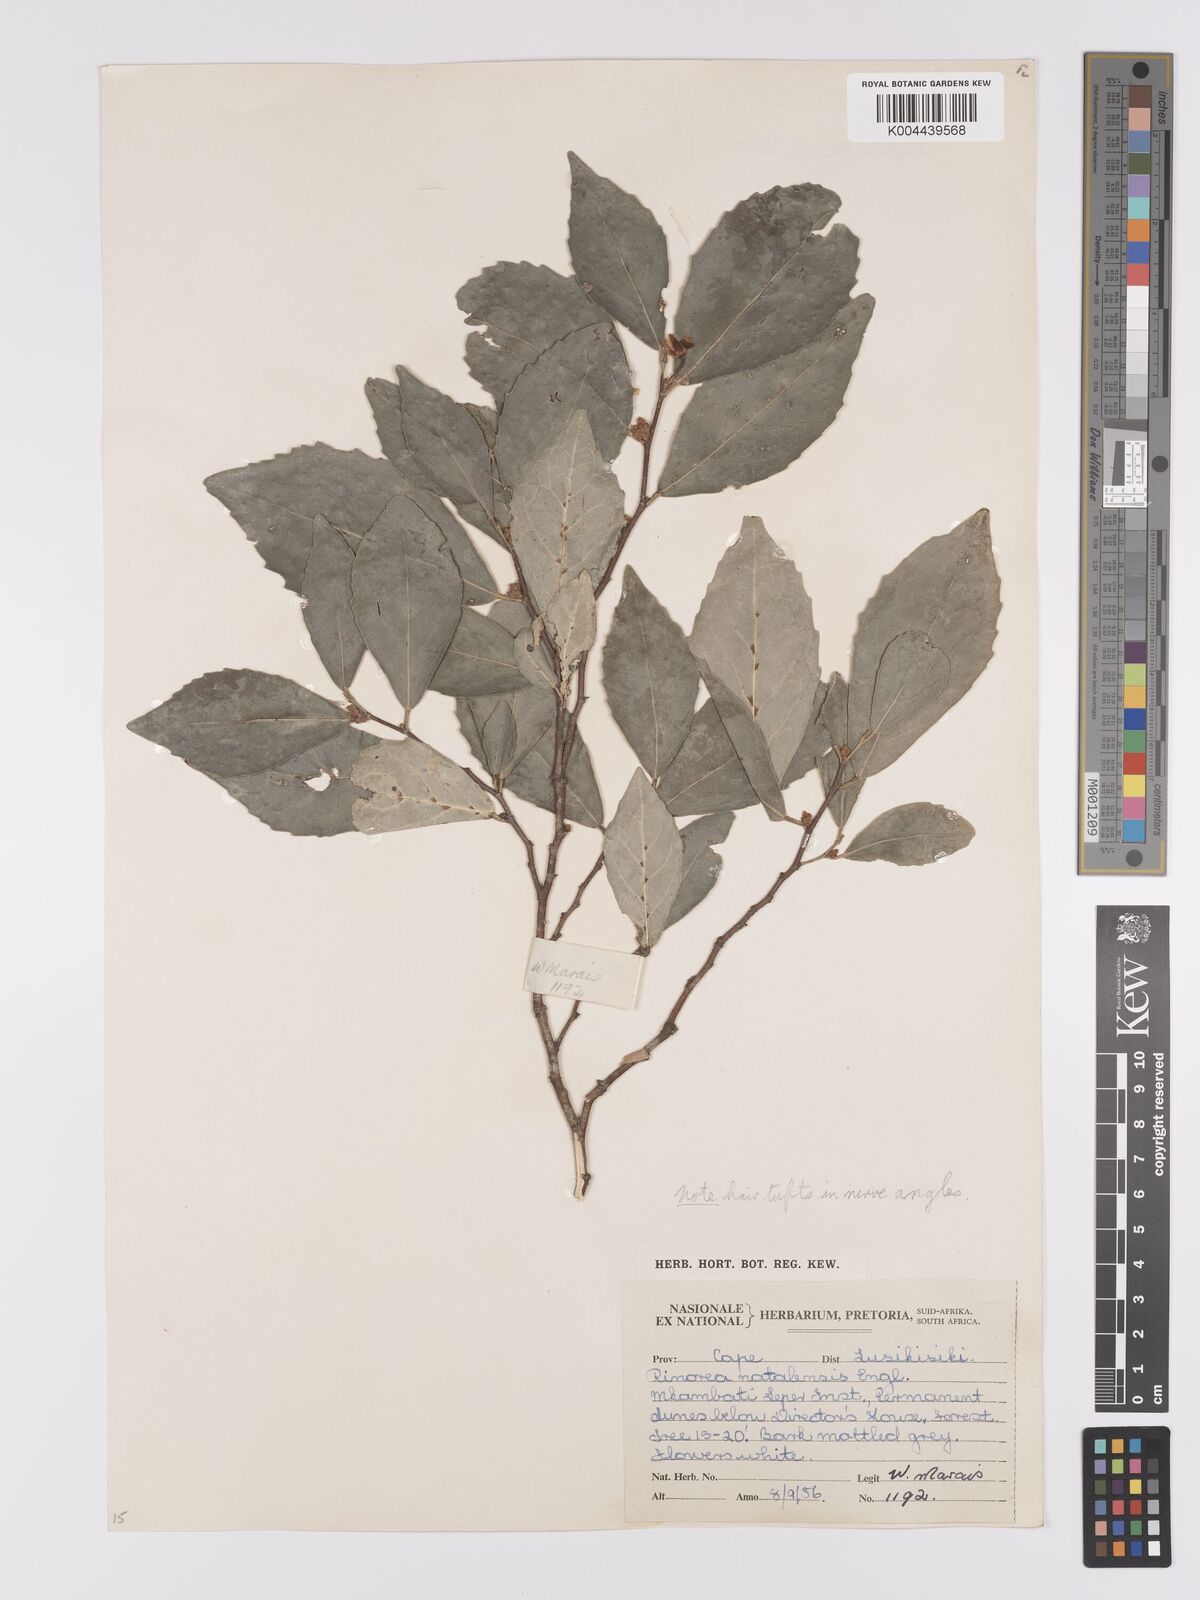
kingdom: Plantae
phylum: Tracheophyta
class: Magnoliopsida
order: Malpighiales
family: Violaceae
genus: Rinorea
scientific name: Rinorea angustifolia
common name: White violet-bush
